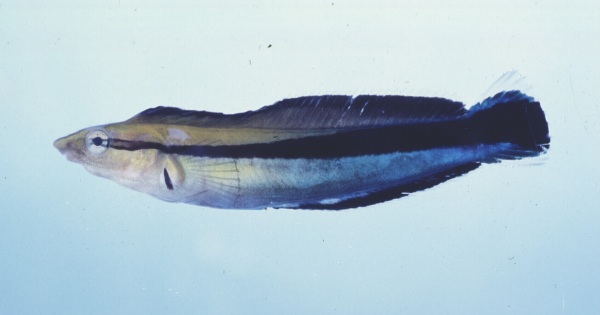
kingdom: Animalia
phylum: Chordata
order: Perciformes
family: Labridae
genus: Labroides
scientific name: Labroides dimidiatus
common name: Blue diesel wrasse
